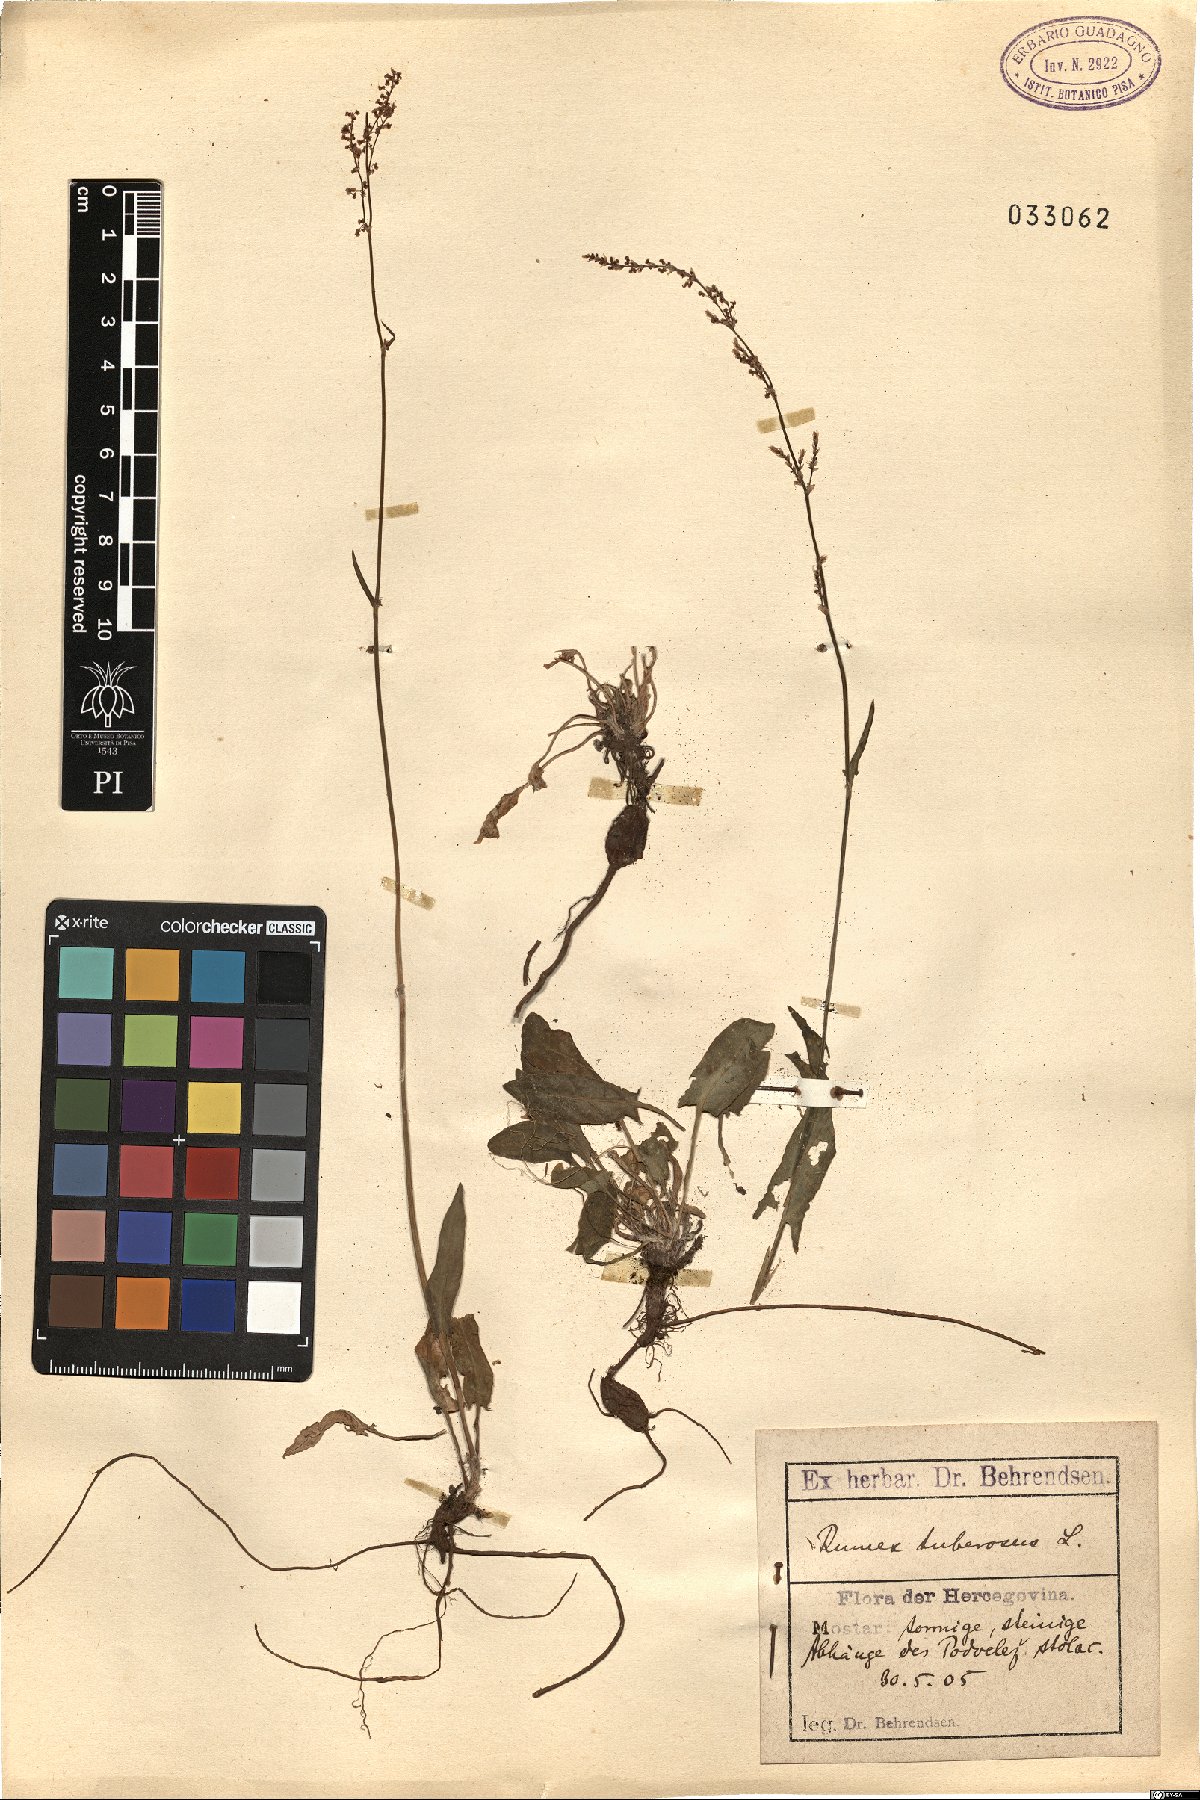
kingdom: Plantae
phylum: Tracheophyta
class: Magnoliopsida
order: Caryophyllales
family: Polygonaceae
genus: Rumex
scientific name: Rumex tuberosus
